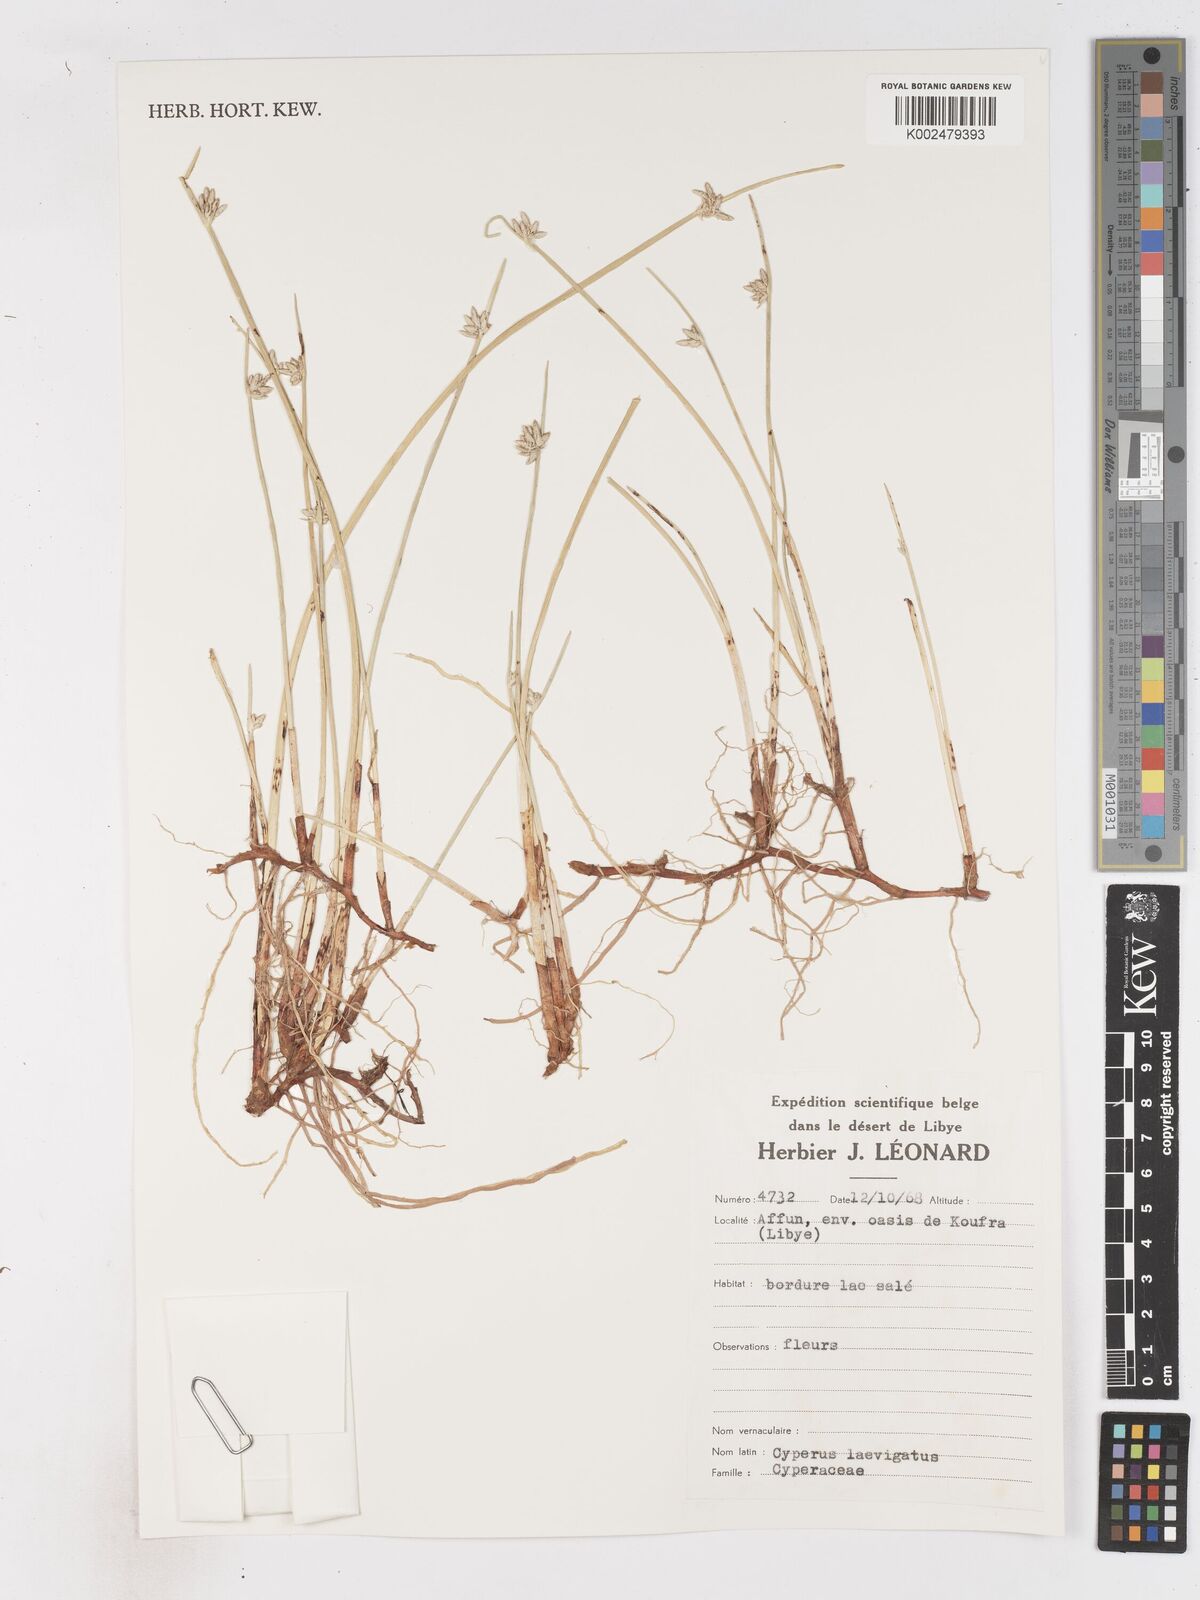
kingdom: Plantae
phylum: Tracheophyta
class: Liliopsida
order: Poales
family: Cyperaceae
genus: Cyperus
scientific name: Cyperus laevigatus
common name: Smooth flat sedge
